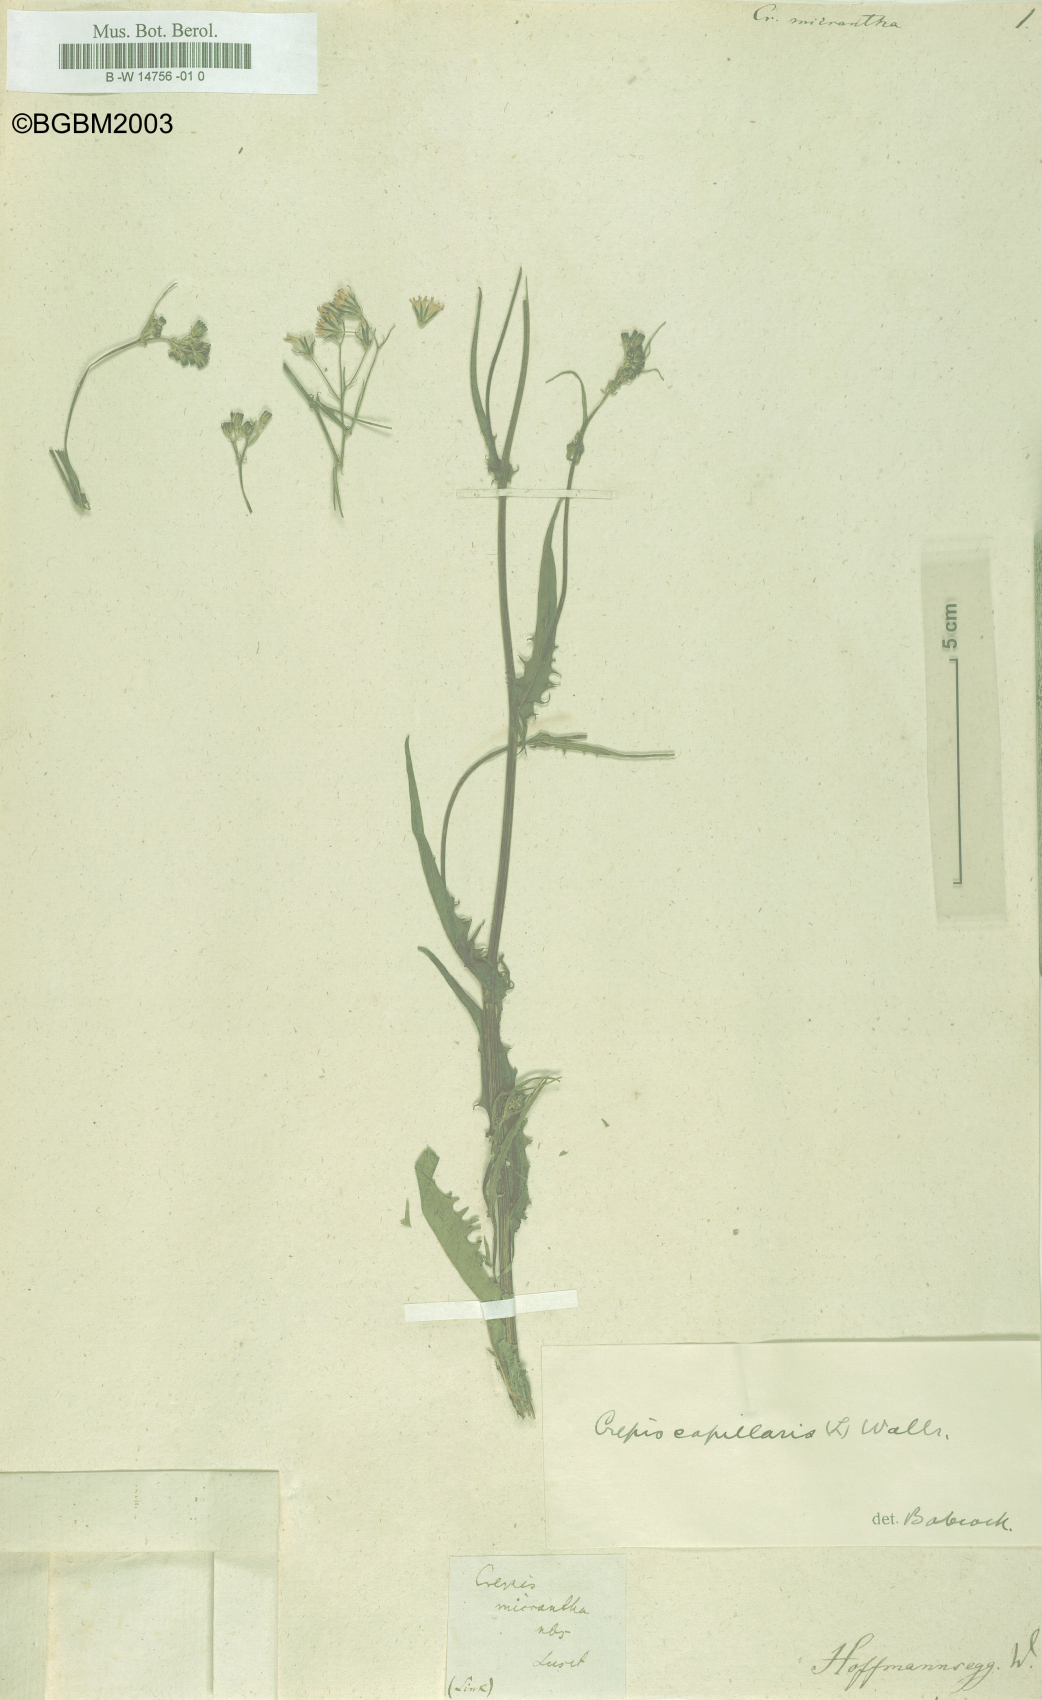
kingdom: Plantae
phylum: Tracheophyta
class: Magnoliopsida
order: Asterales
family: Asteraceae
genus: Crepis
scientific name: Crepis micrantha
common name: Hawk's-beard
